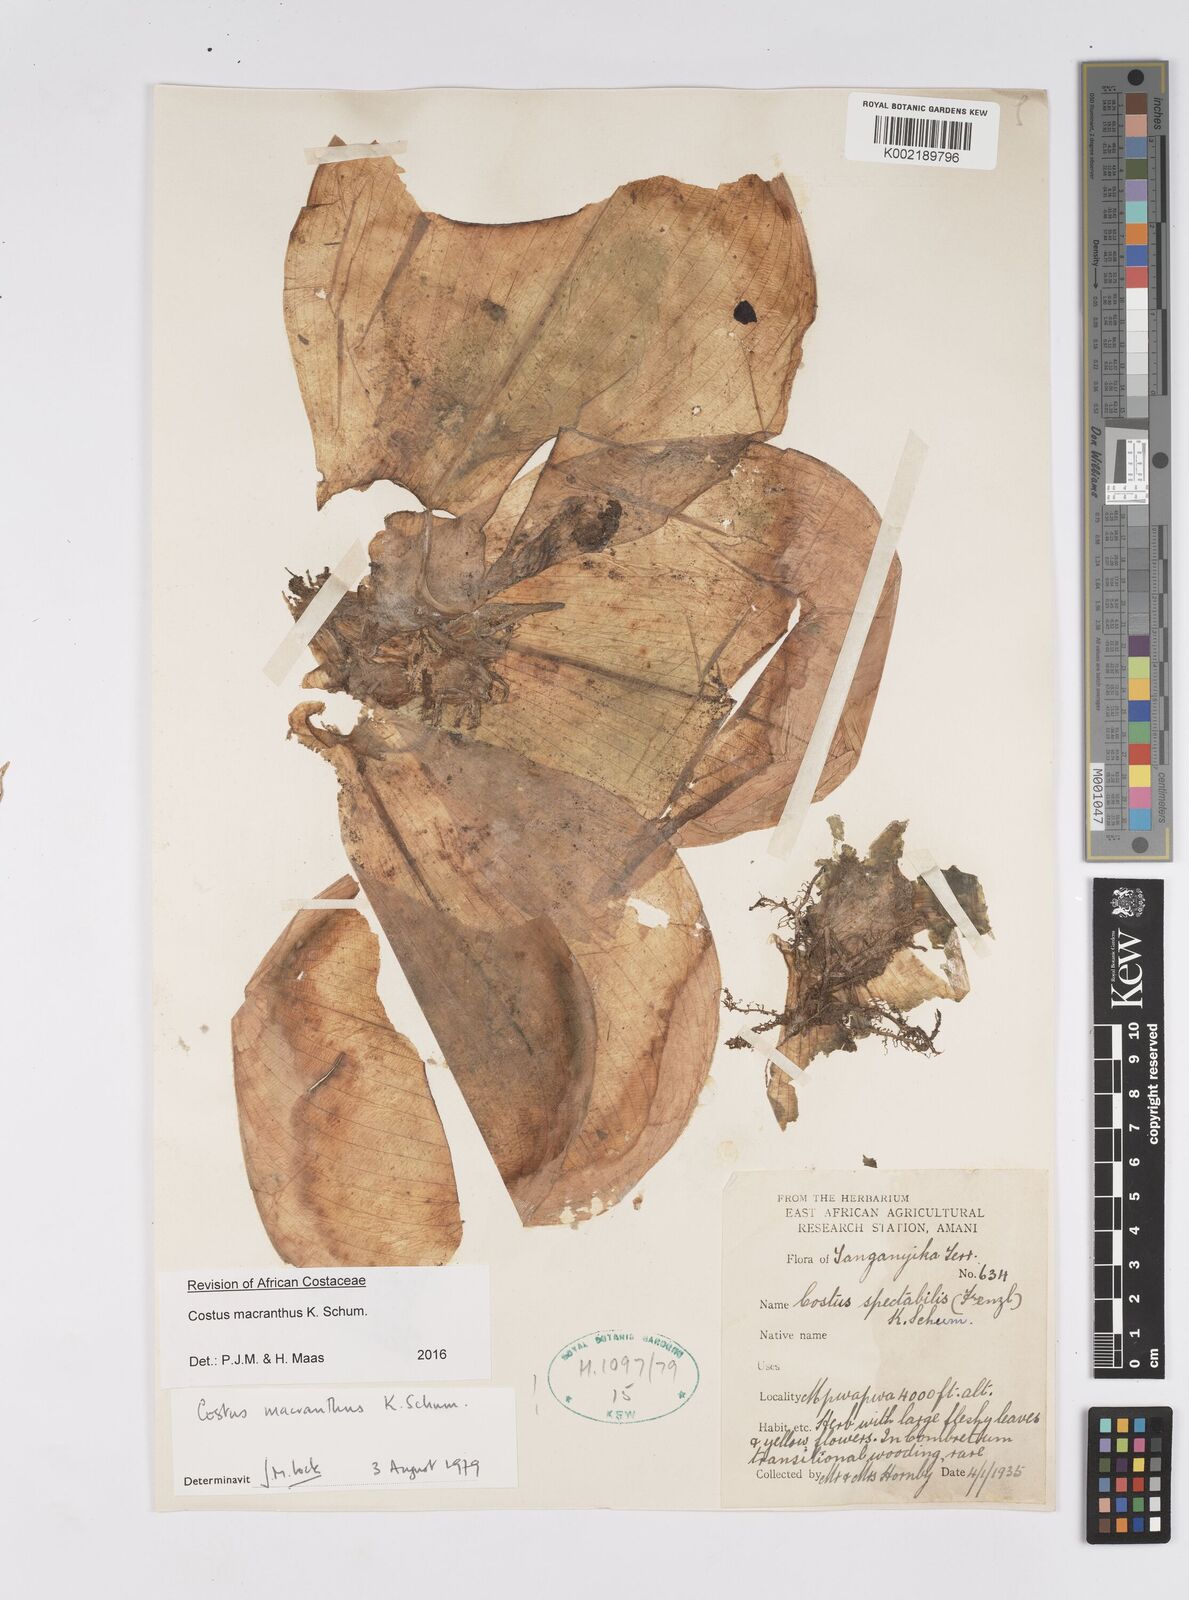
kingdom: Plantae
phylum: Tracheophyta
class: Liliopsida
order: Zingiberales
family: Costaceae
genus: Costus
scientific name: Costus macranthus
